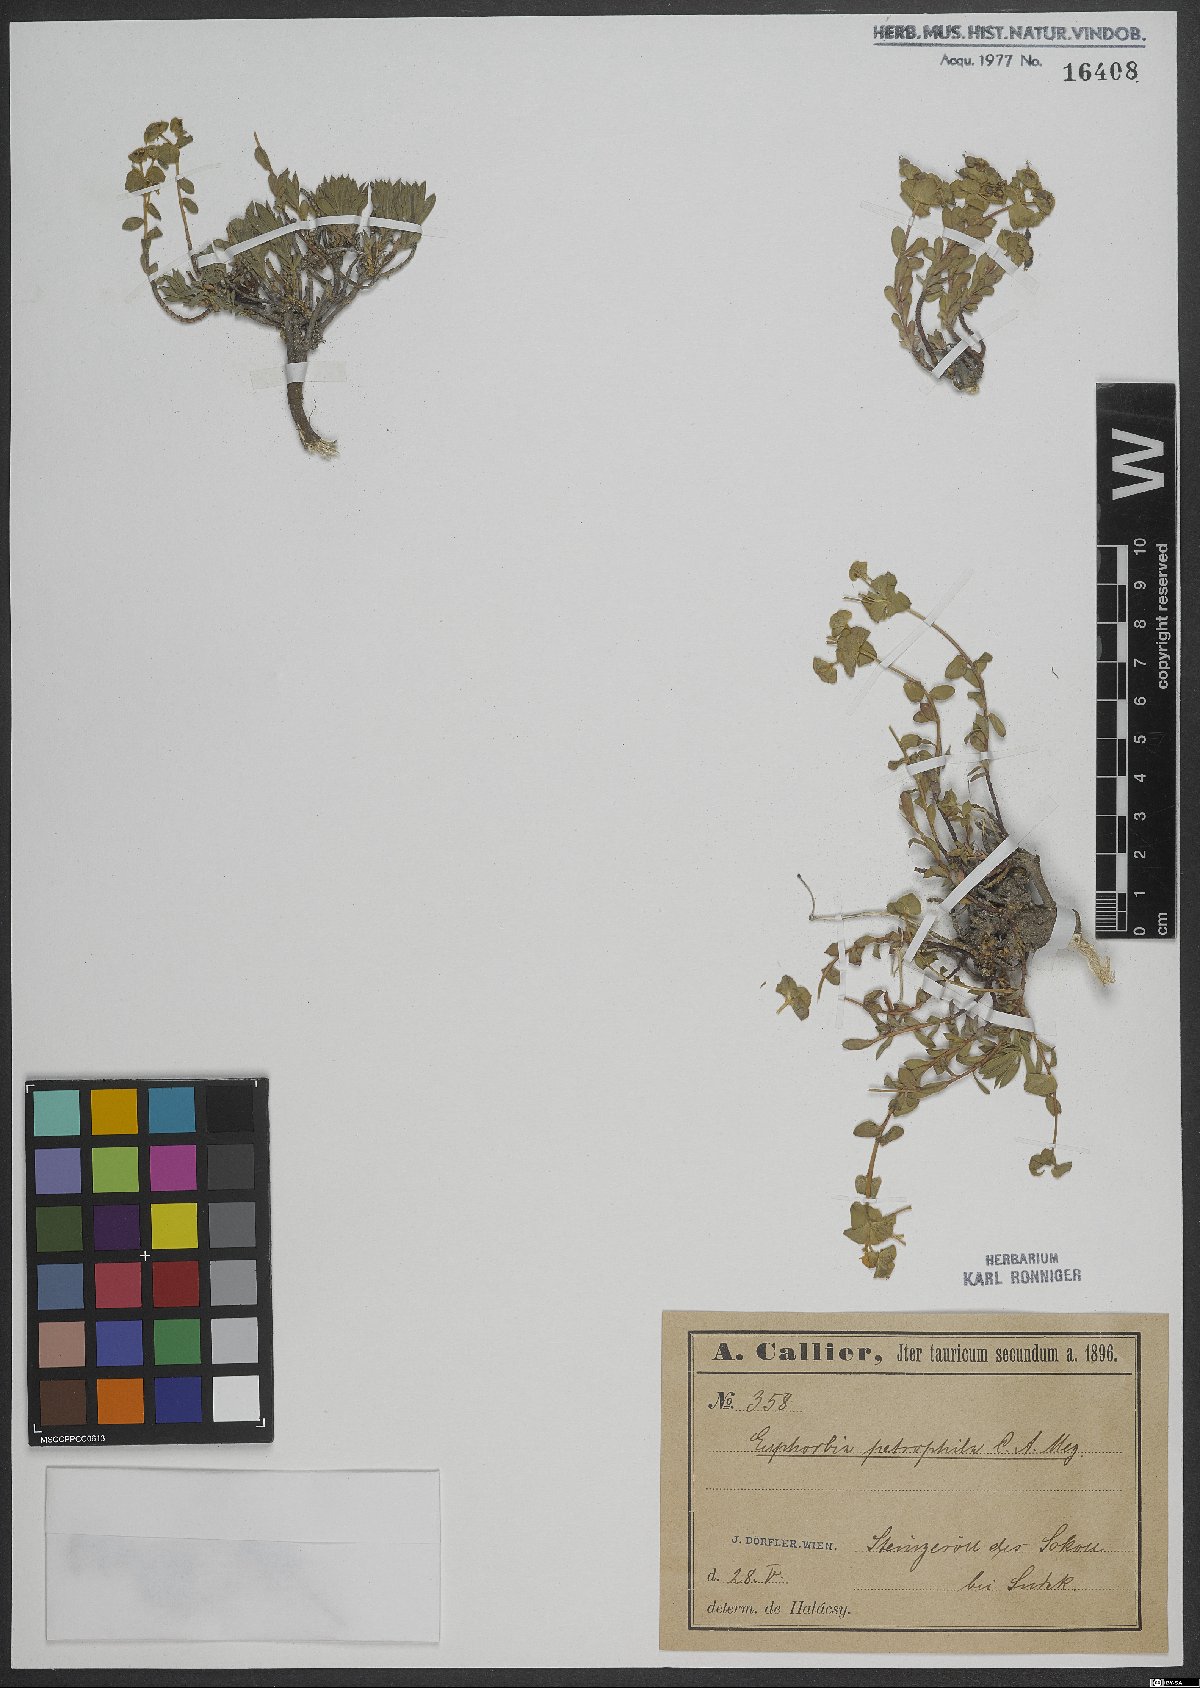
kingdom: Plantae
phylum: Tracheophyta
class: Magnoliopsida
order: Malpighiales
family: Euphorbiaceae
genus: Euphorbia
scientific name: Euphorbia petrophila
